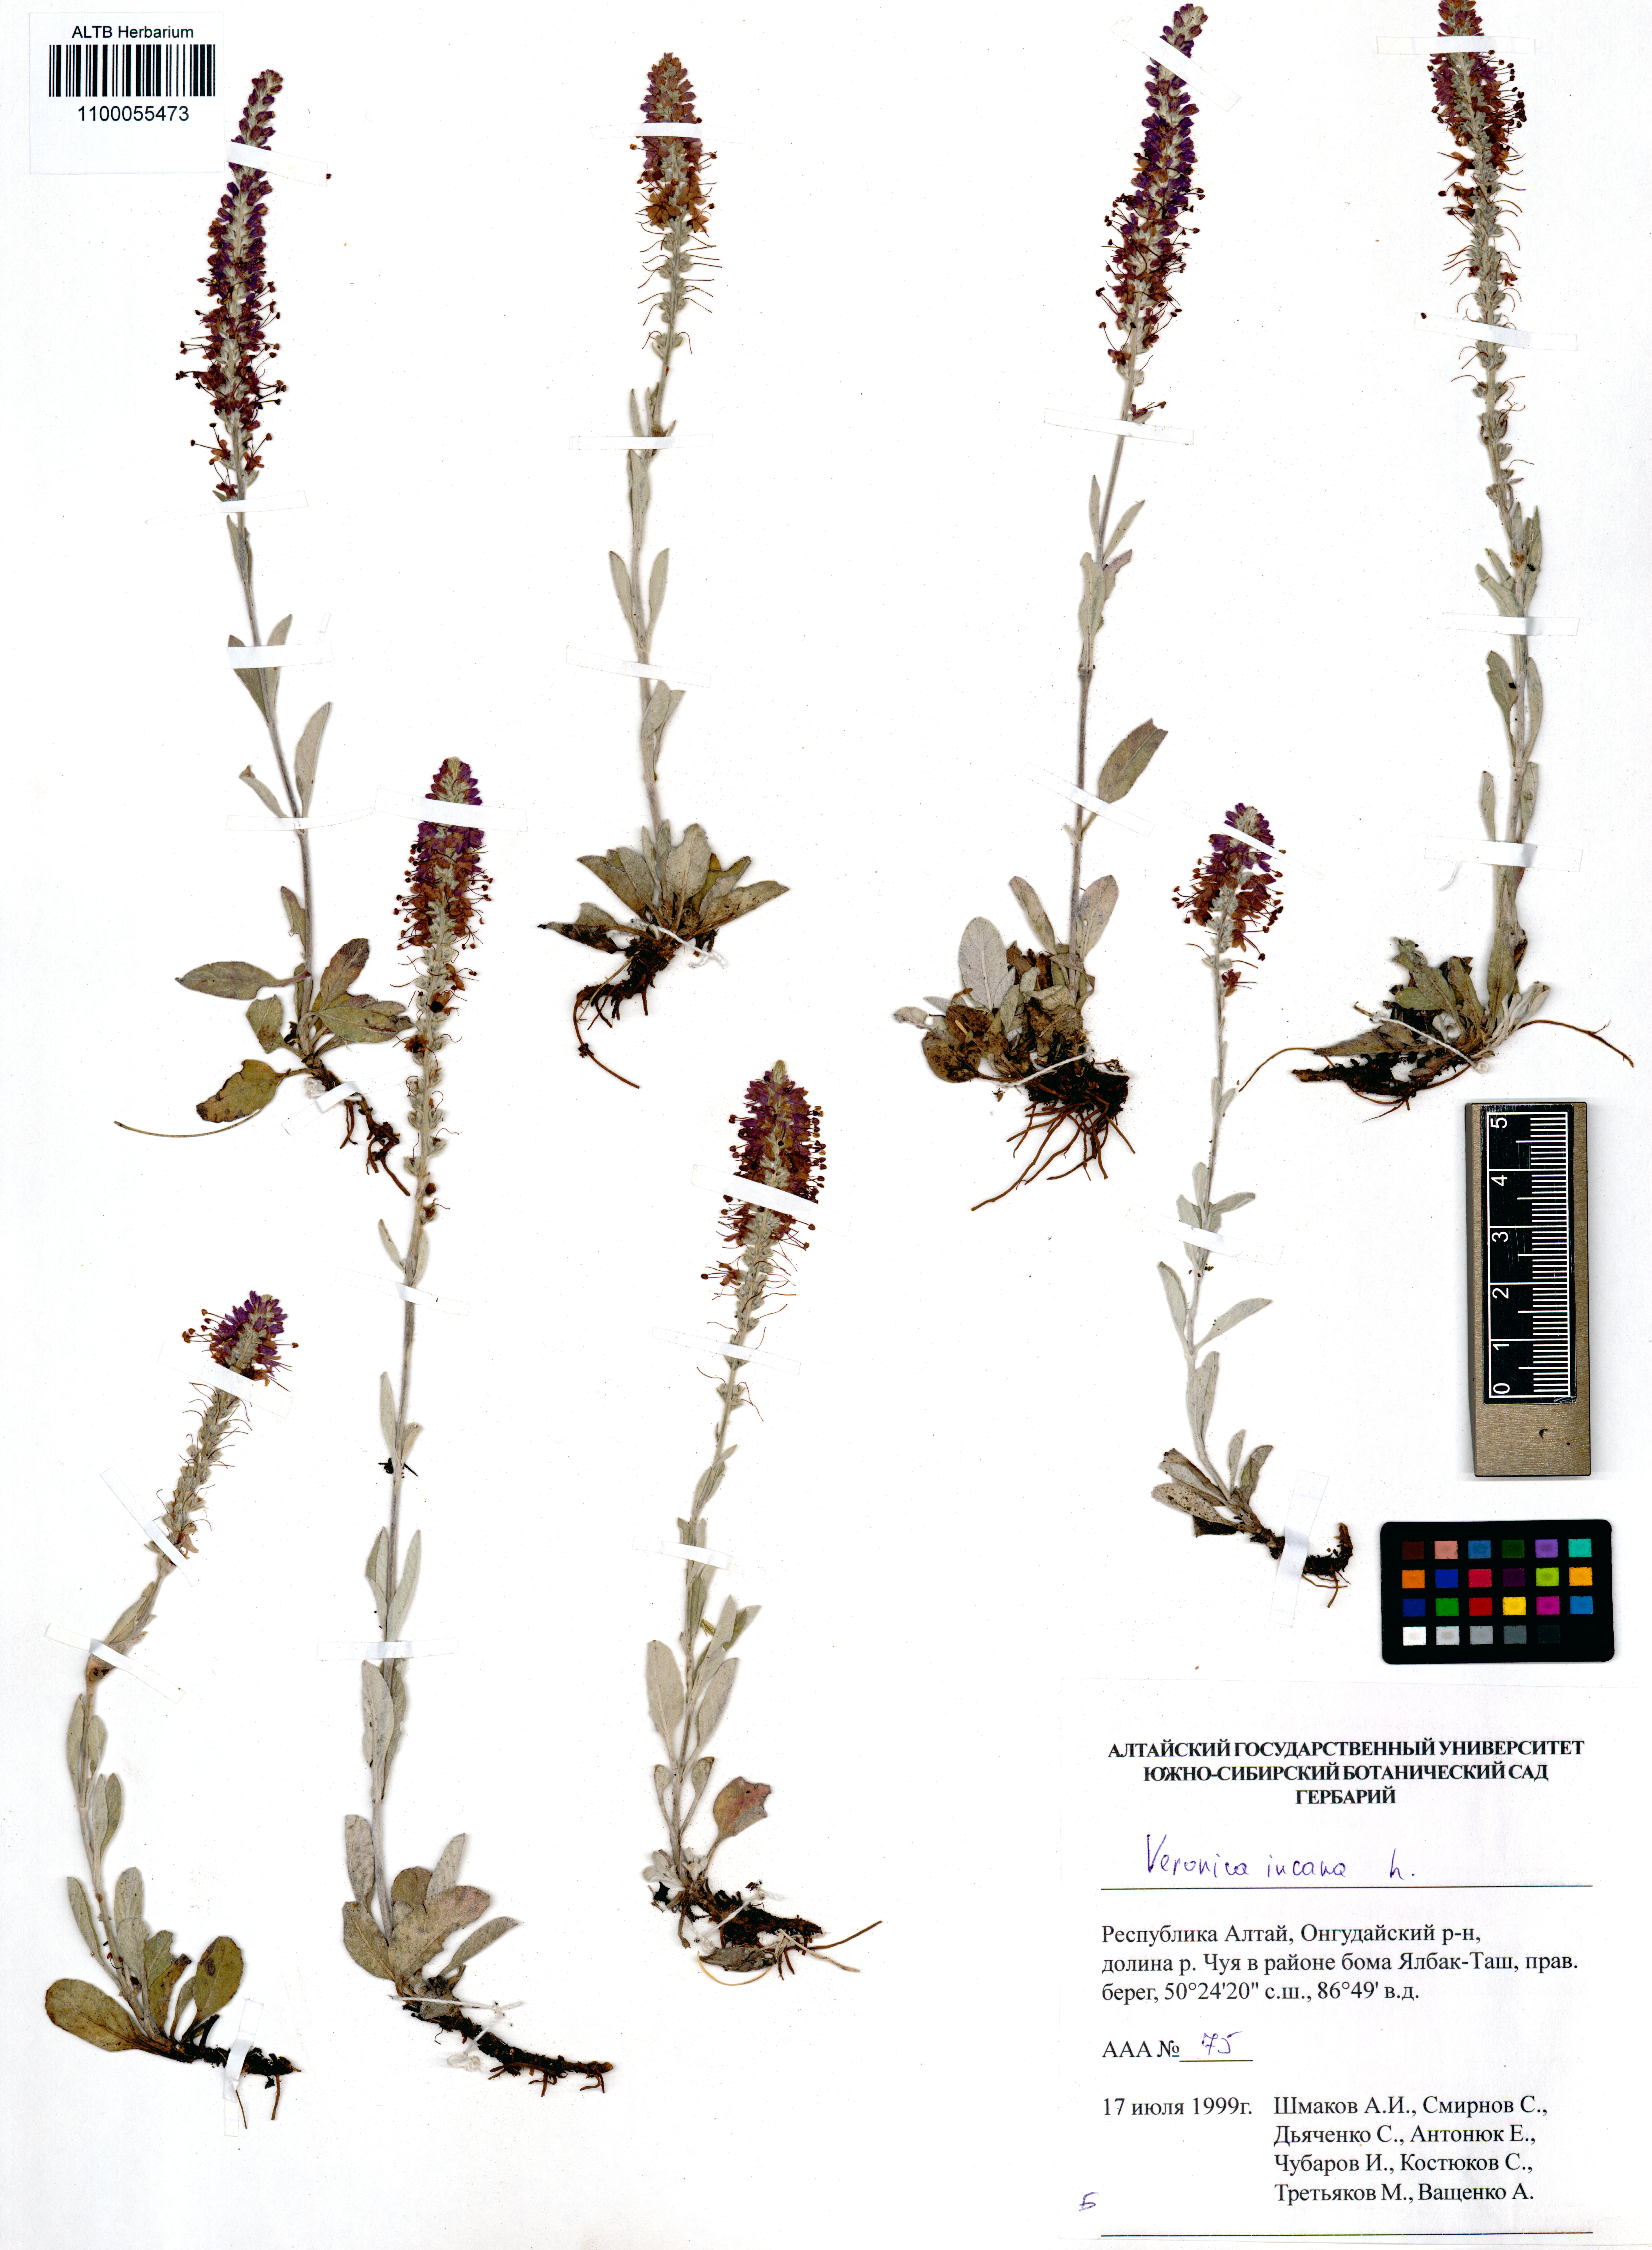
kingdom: Plantae
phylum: Tracheophyta
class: Magnoliopsida
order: Lamiales
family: Plantaginaceae
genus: Veronica
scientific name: Veronica incana
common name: Silver speedwell
